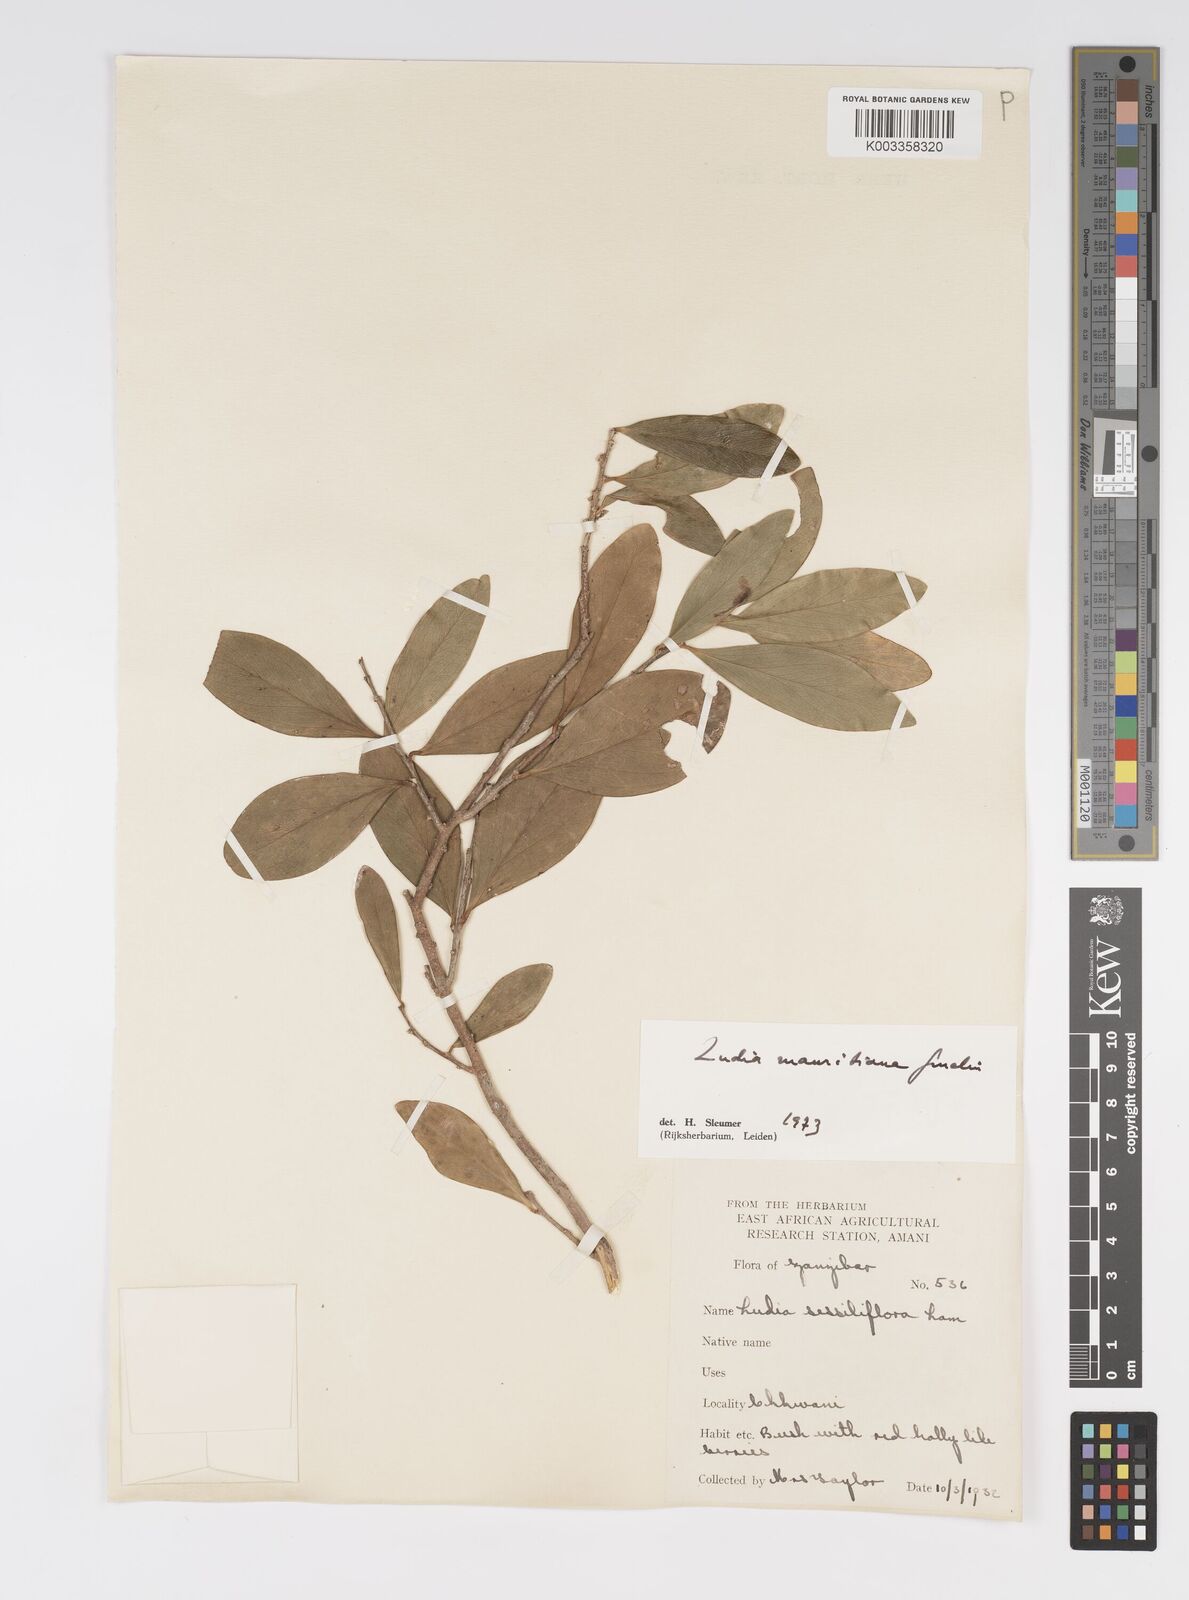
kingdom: Plantae
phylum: Tracheophyta
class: Magnoliopsida
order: Malpighiales
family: Salicaceae
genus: Ludia
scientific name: Ludia mauritiana
